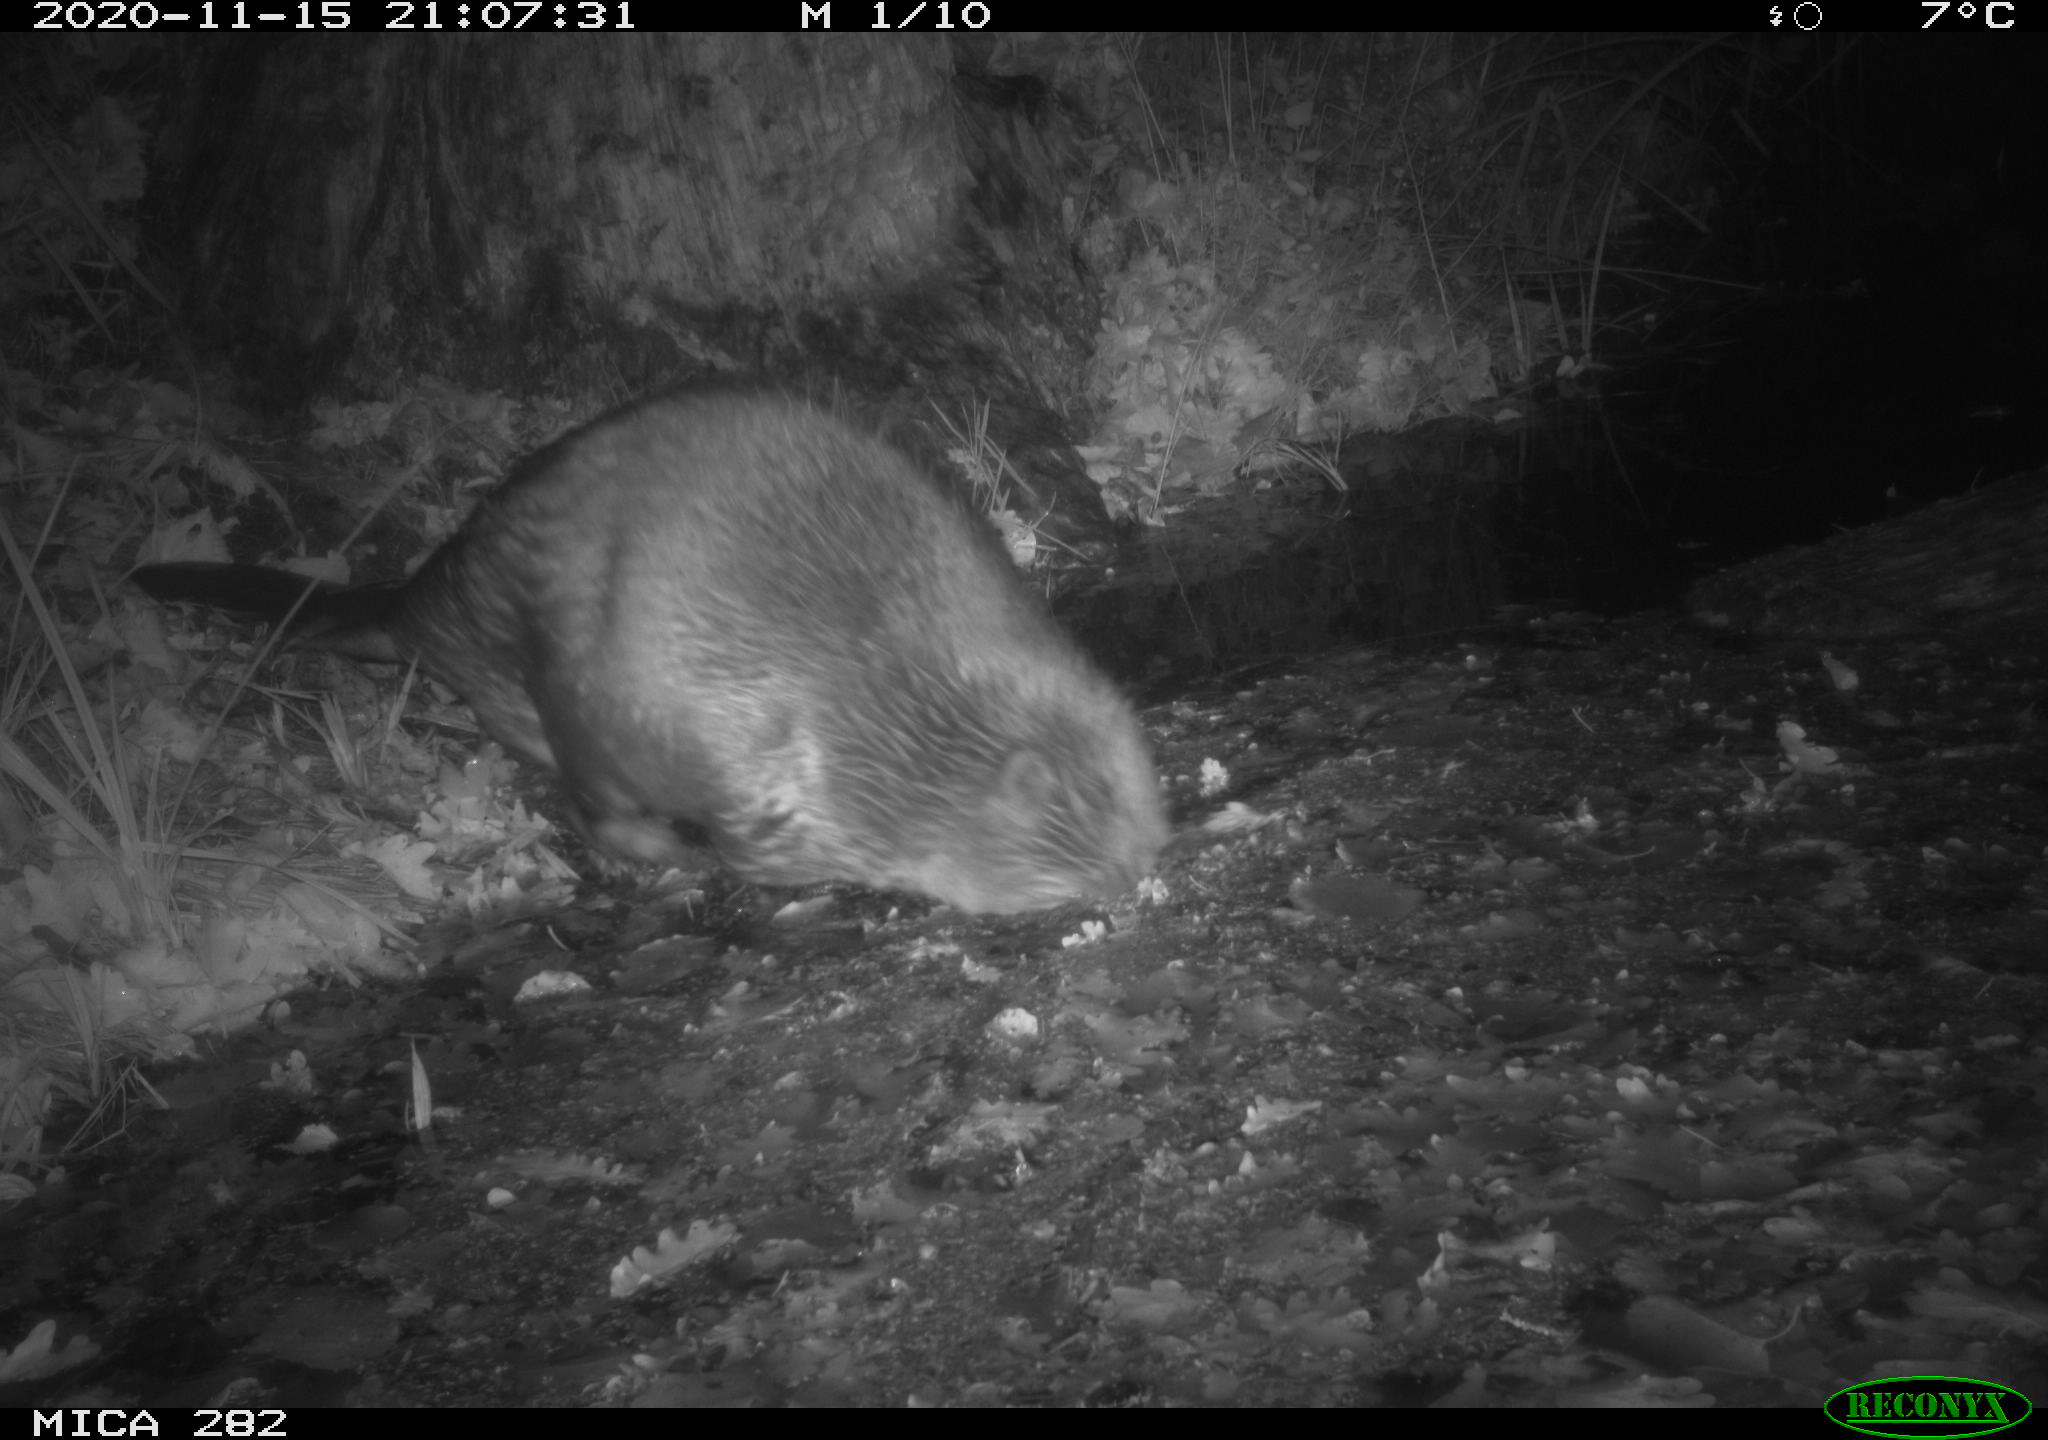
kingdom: Animalia
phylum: Chordata
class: Mammalia
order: Rodentia
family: Castoridae
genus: Castor
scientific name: Castor fiber
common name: Eurasian beaver
